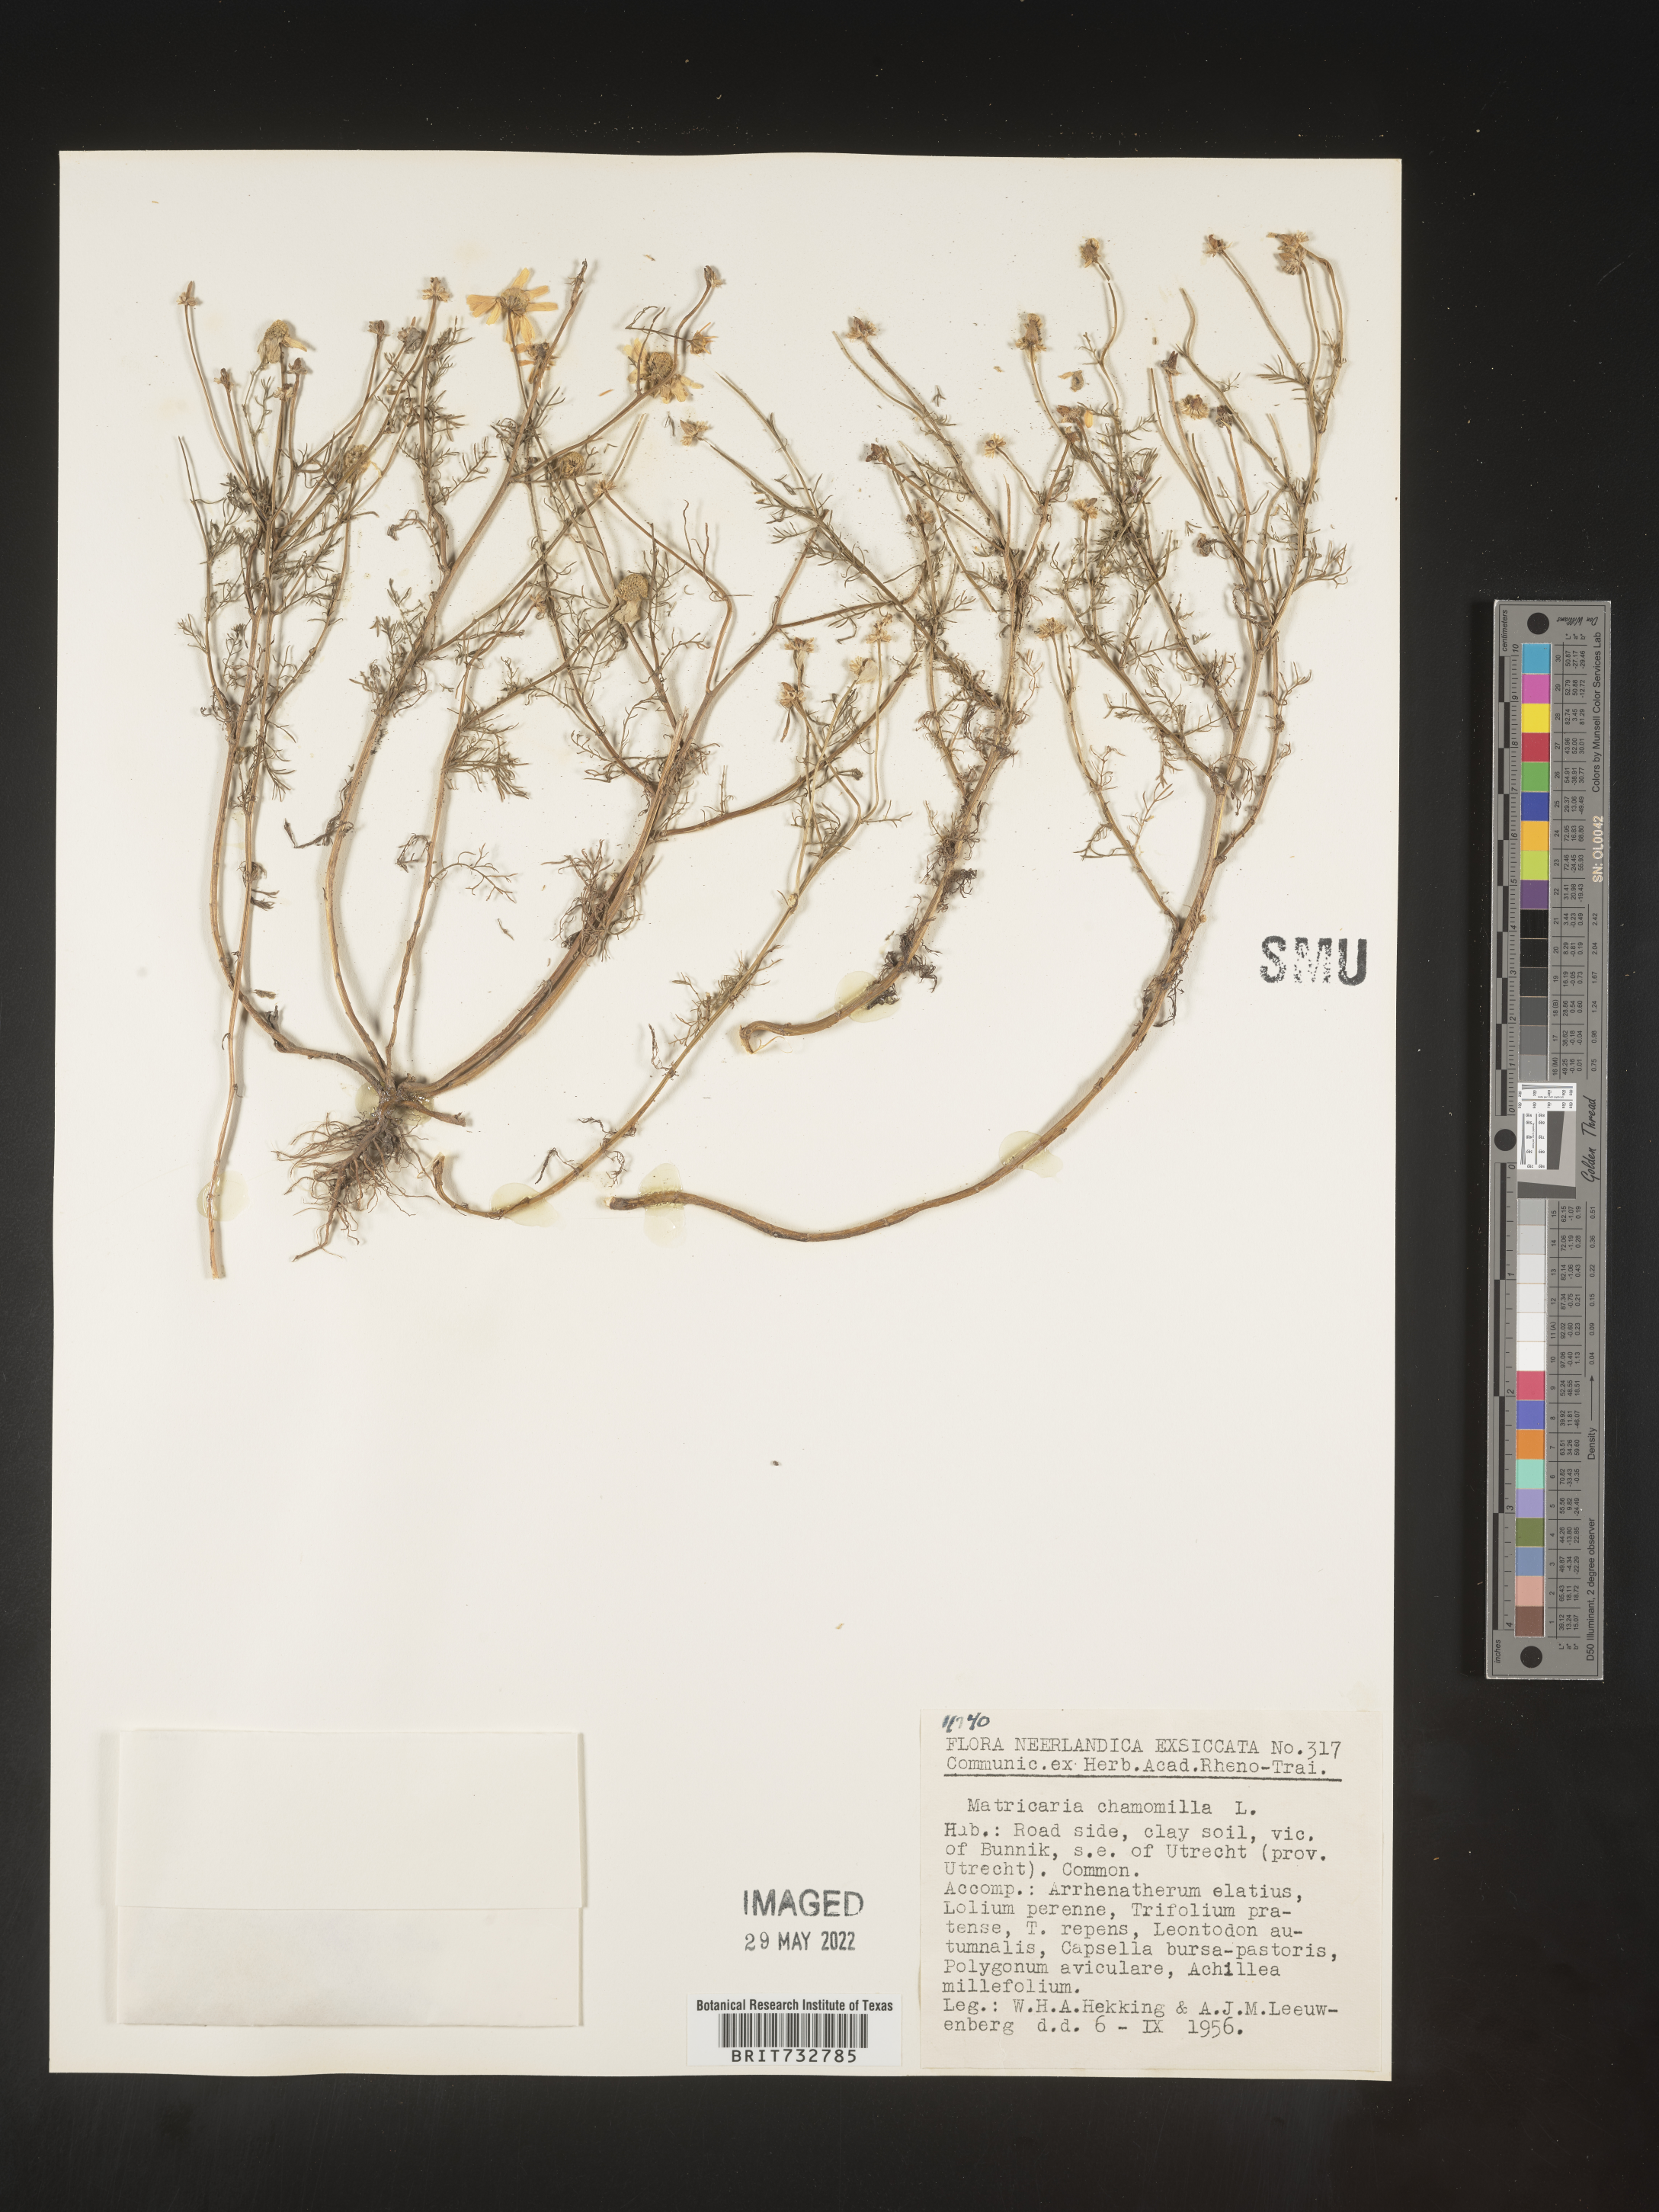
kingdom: Plantae
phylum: Tracheophyta
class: Magnoliopsida
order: Asterales
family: Asteraceae
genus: Matricaria
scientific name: Matricaria
